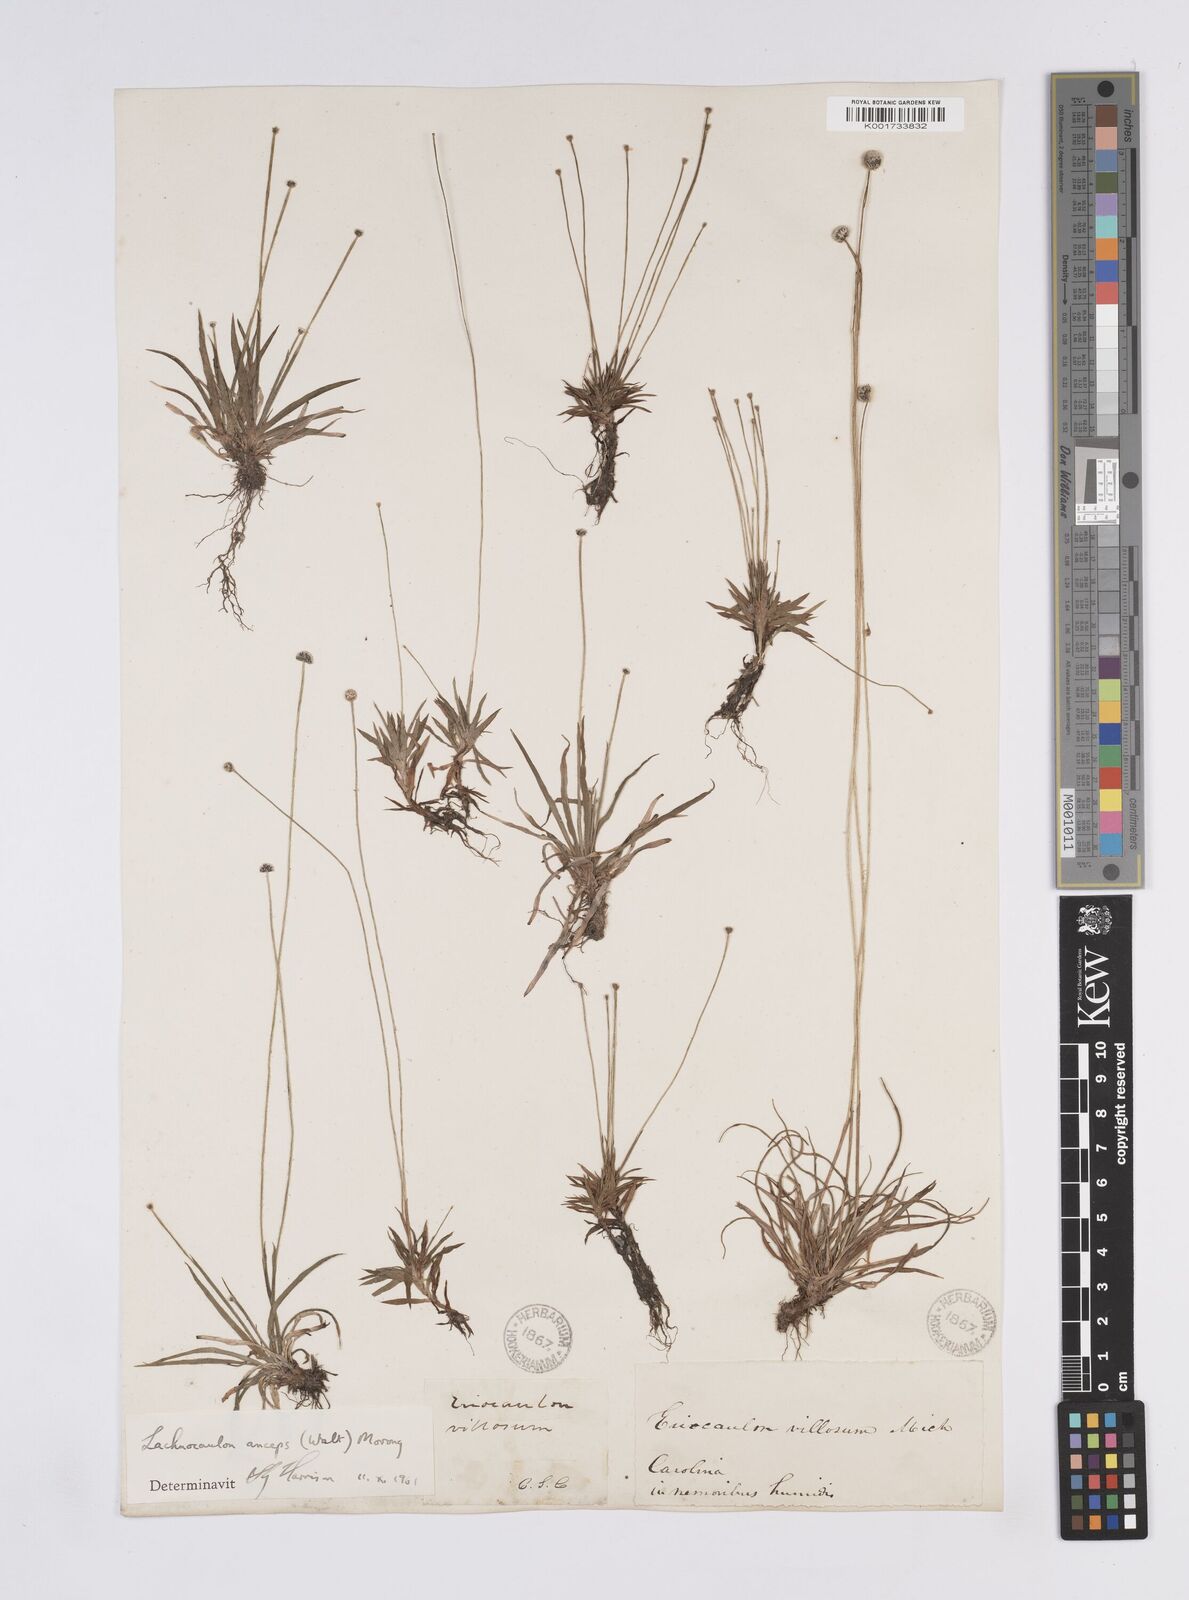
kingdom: Plantae
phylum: Tracheophyta
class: Liliopsida
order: Poales
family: Eriocaulaceae
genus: Paepalanthus
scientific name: Paepalanthus anceps
